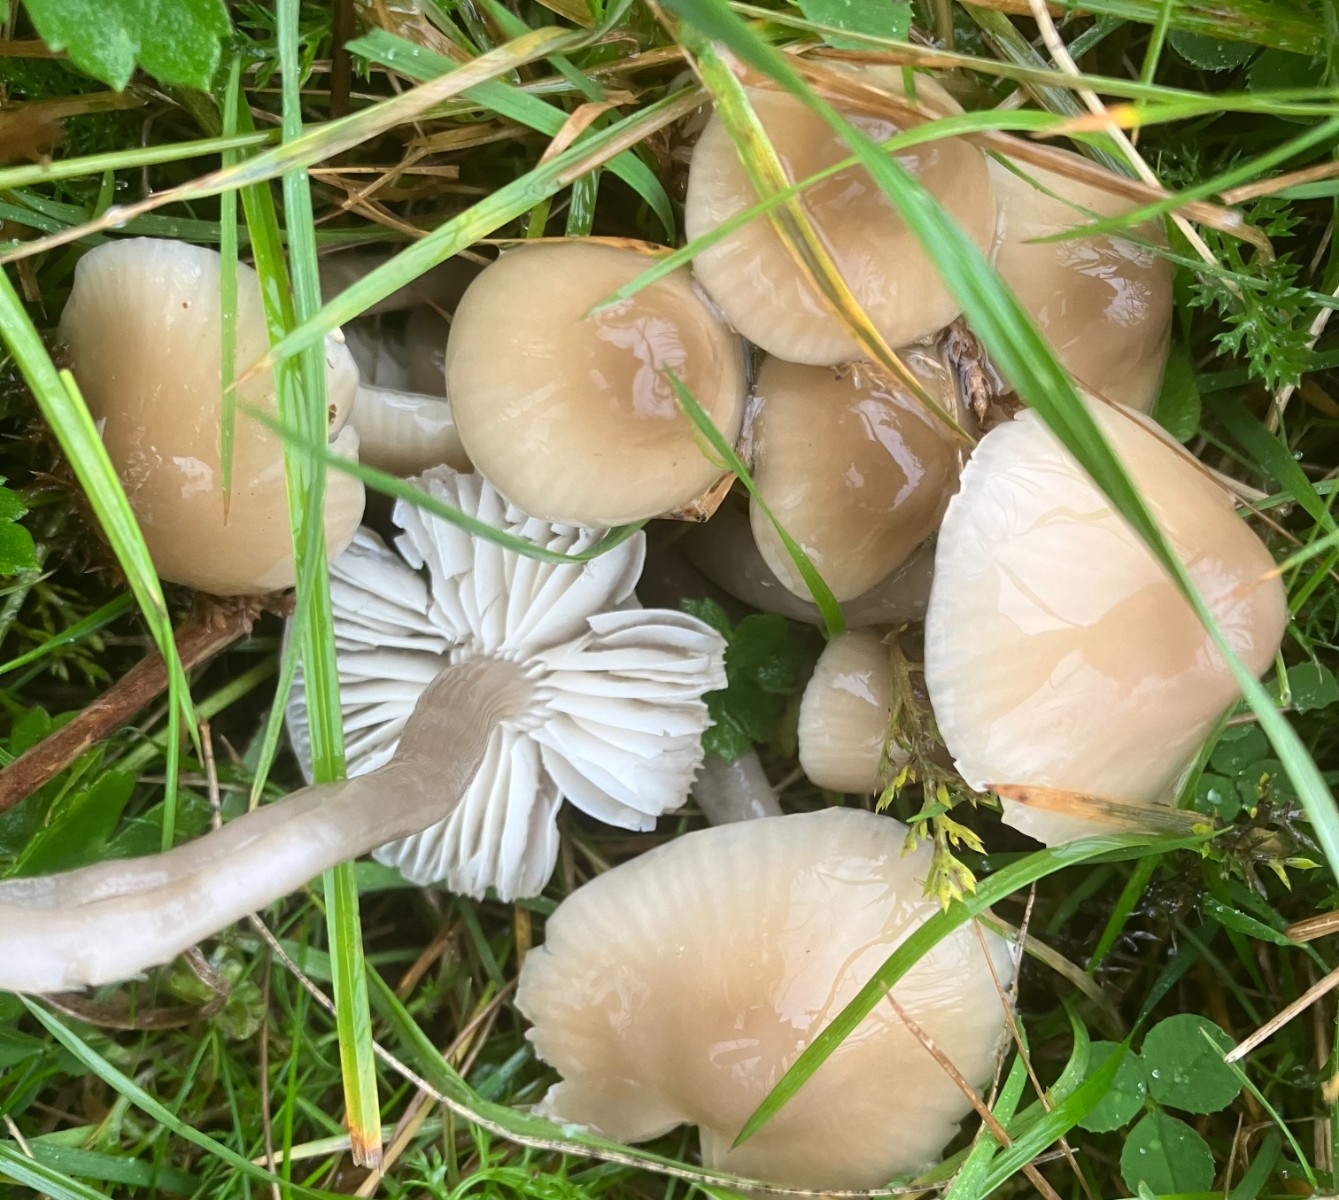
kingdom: Fungi
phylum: Basidiomycota
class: Agaricomycetes
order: Agaricales
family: Hygrophoraceae
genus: Gliophorus
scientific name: Gliophorus irrigatus
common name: slimet vokshat
